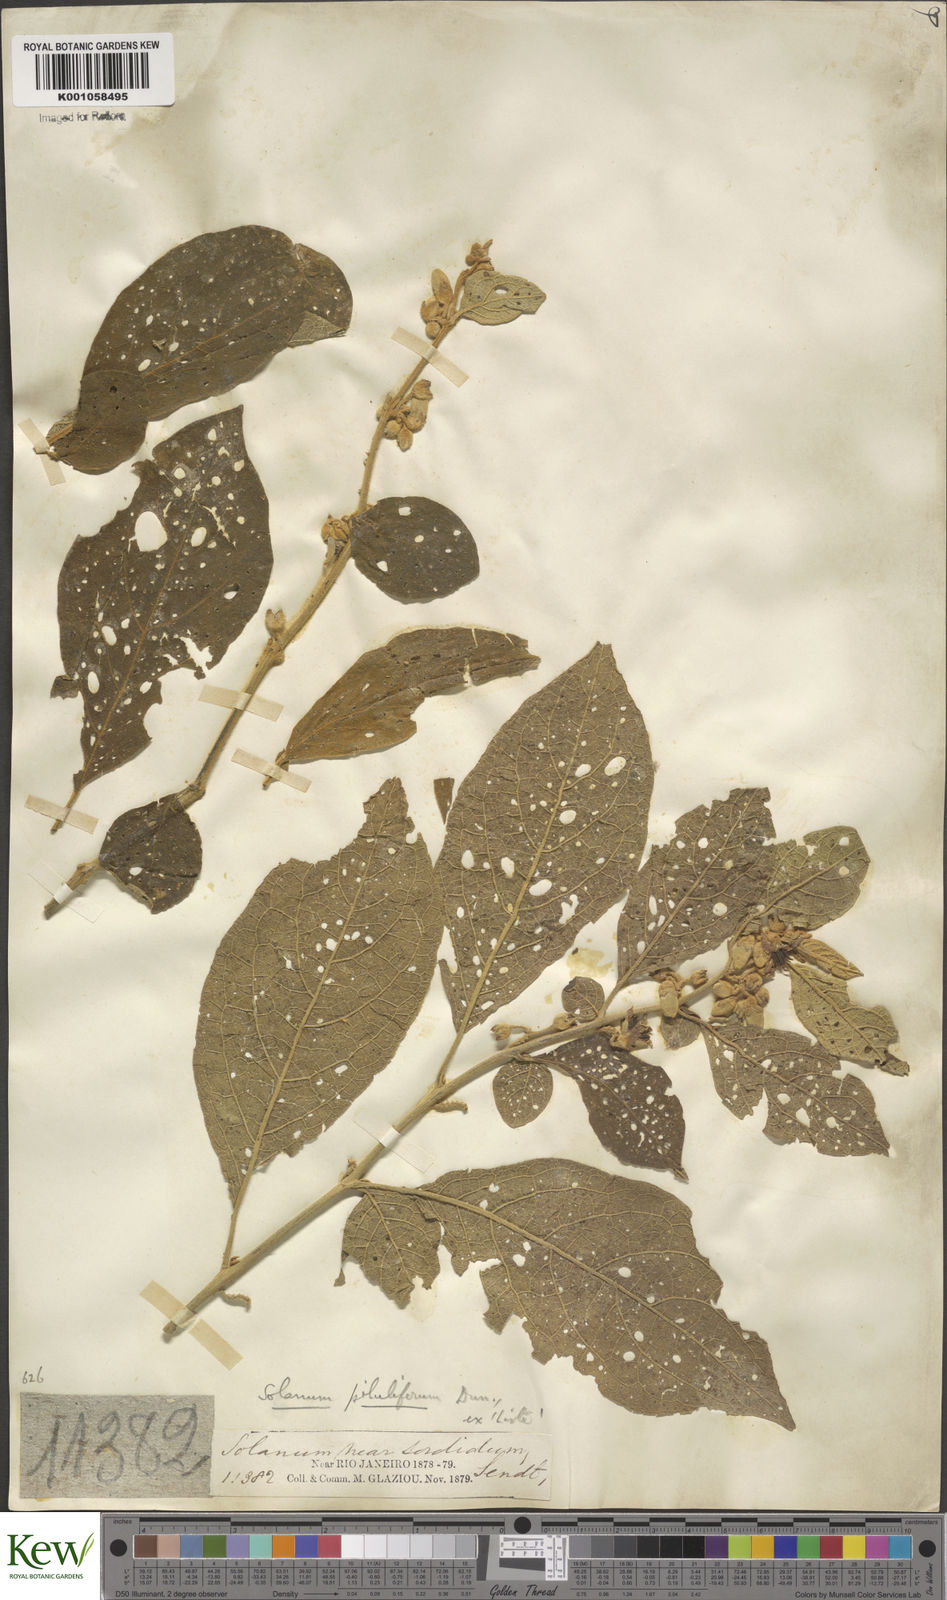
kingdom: Plantae
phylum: Tracheophyta
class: Magnoliopsida
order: Solanales
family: Solanaceae
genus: Solanum
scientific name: Solanum piluliferum
